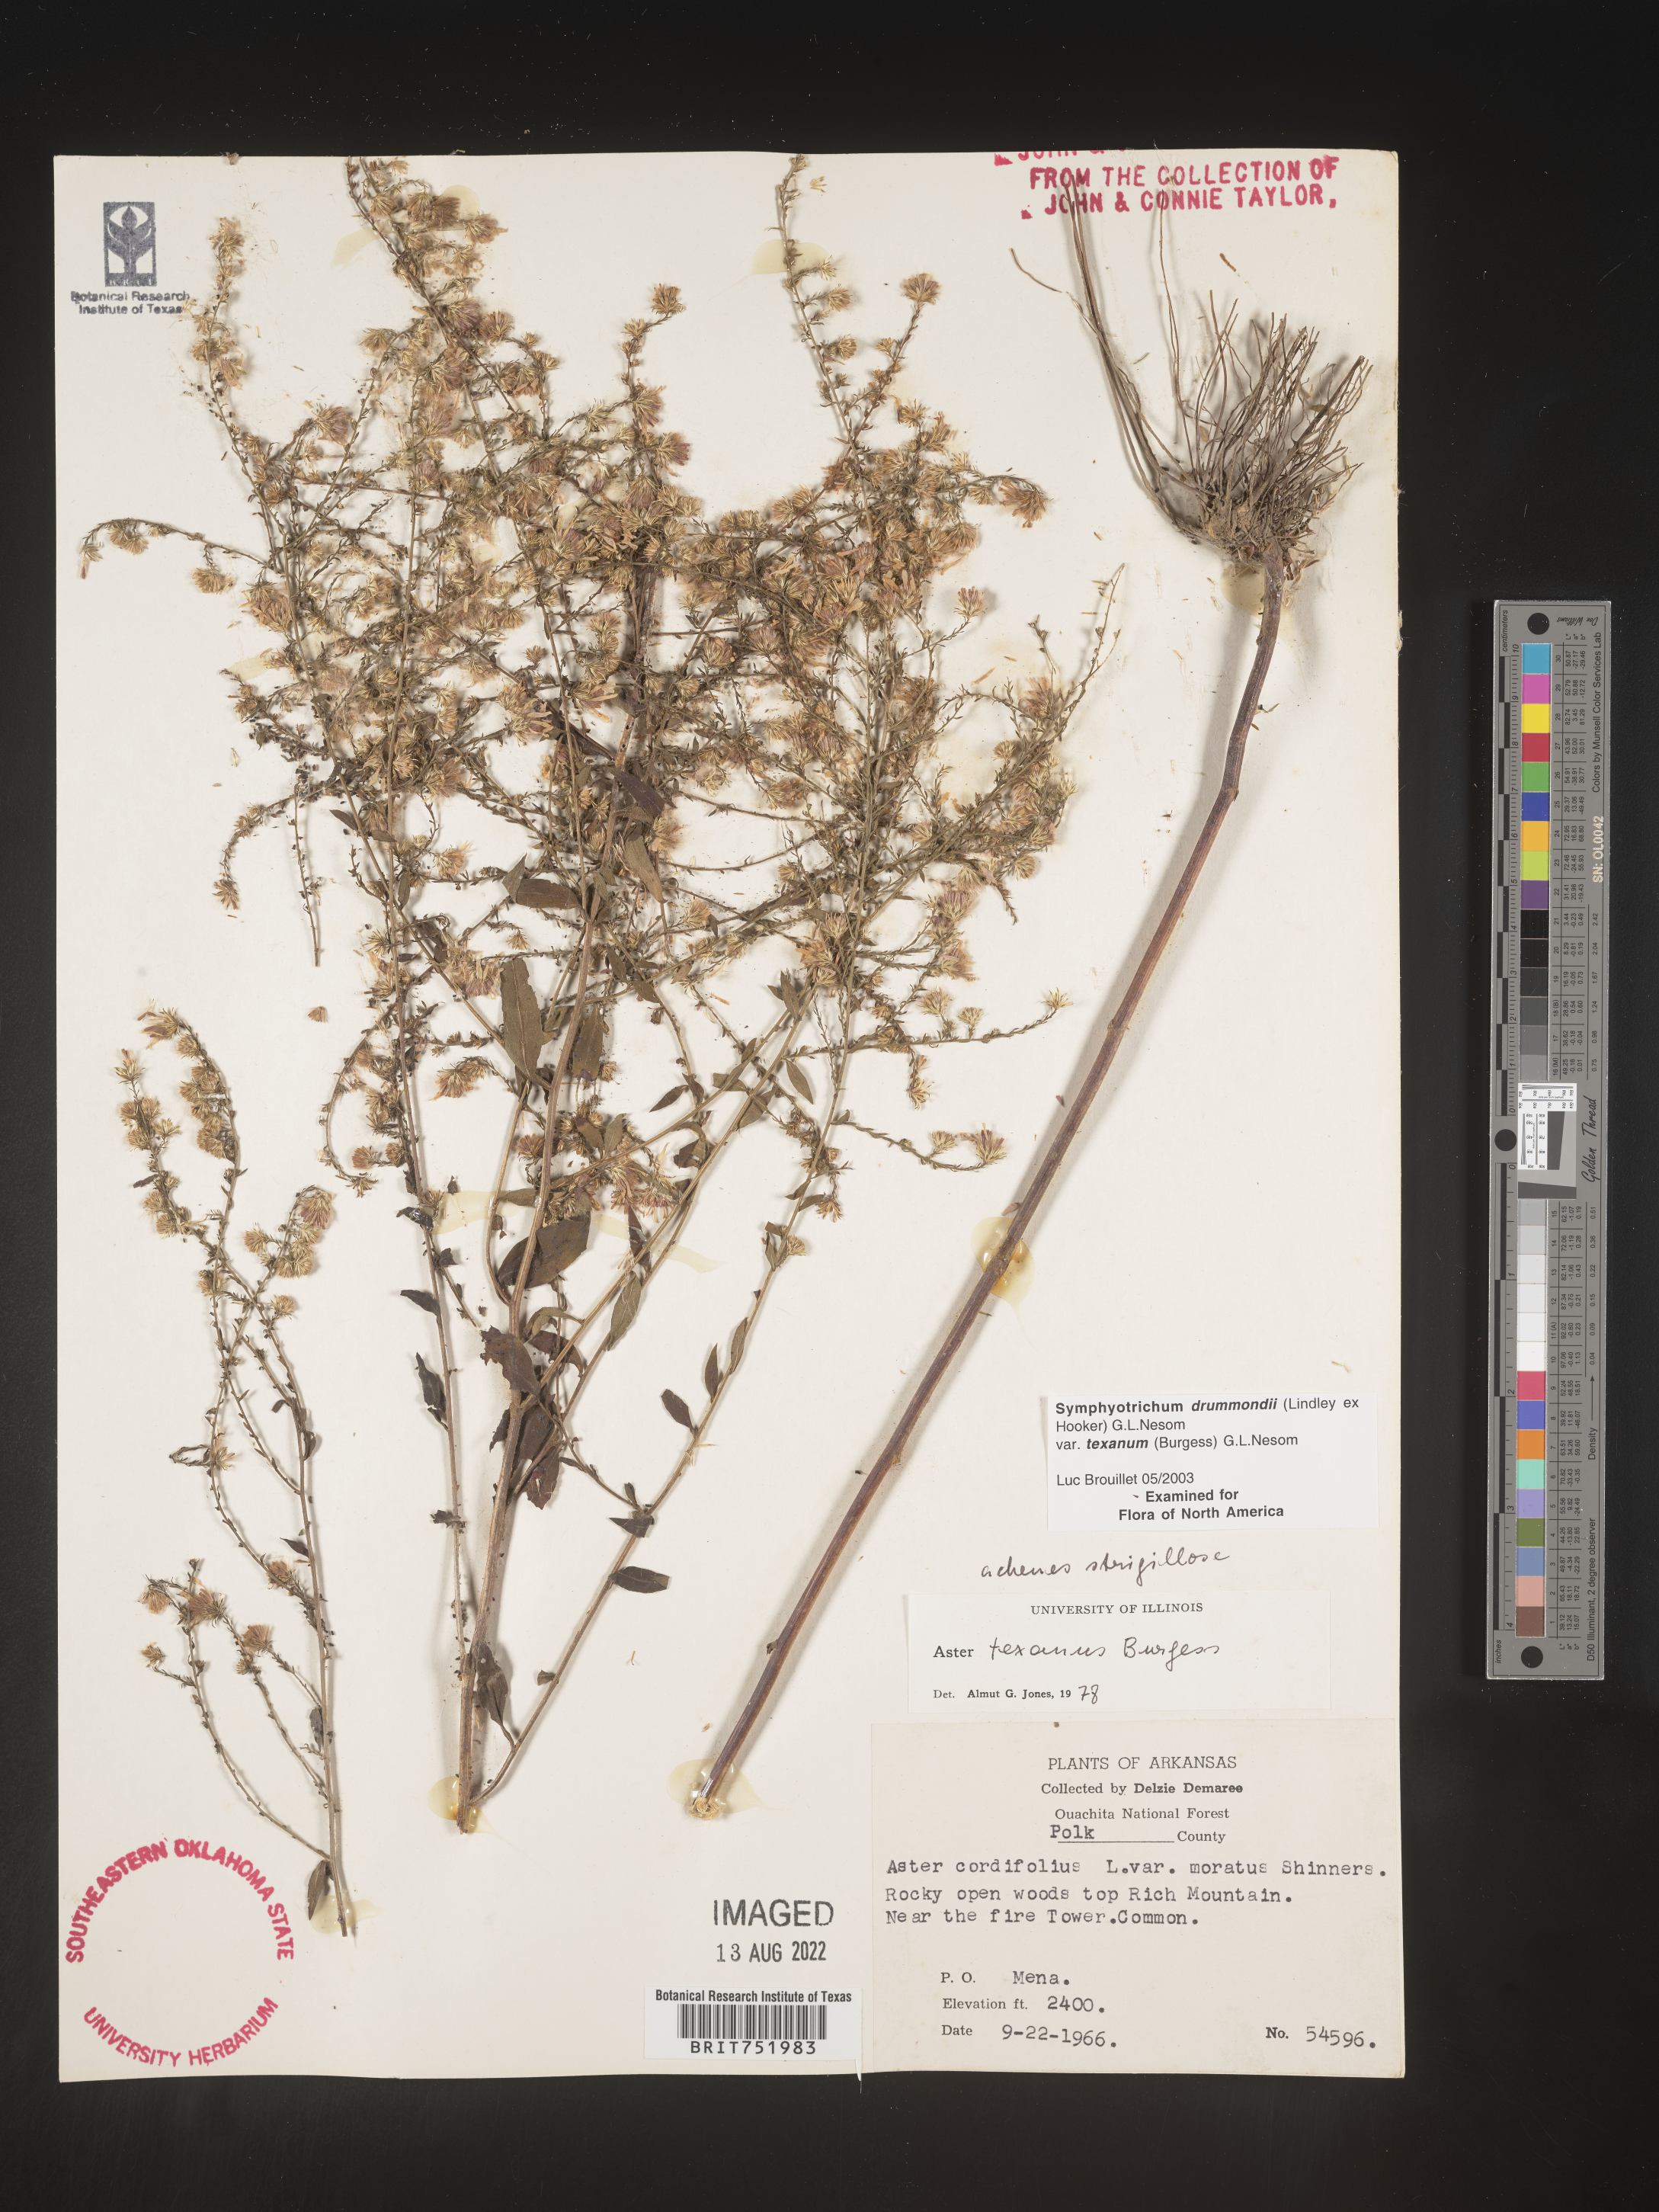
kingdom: Plantae
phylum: Tracheophyta
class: Magnoliopsida
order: Asterales
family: Asteraceae
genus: Symphyotrichum
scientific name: Symphyotrichum drummondii
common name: Drummond's aster
